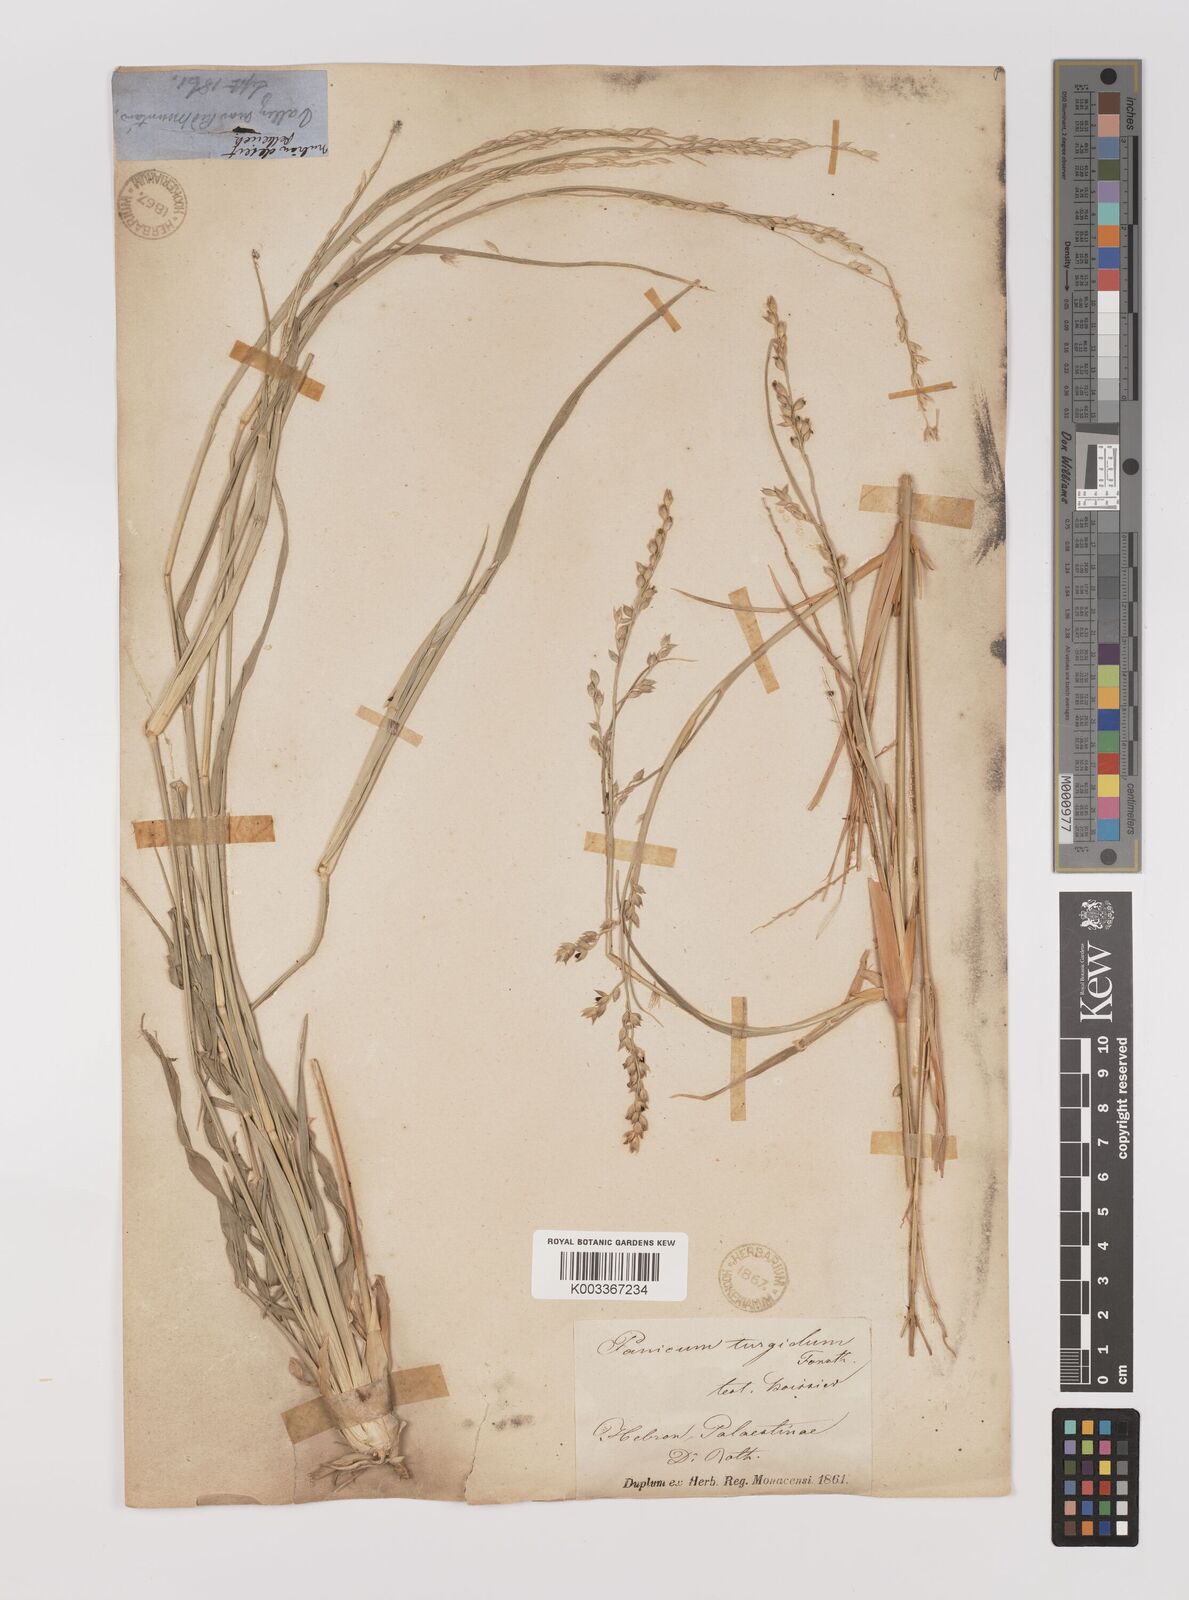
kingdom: Plantae
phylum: Tracheophyta
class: Liliopsida
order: Poales
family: Poaceae
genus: Panicum
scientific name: Panicum turgidum
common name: Desert grass
